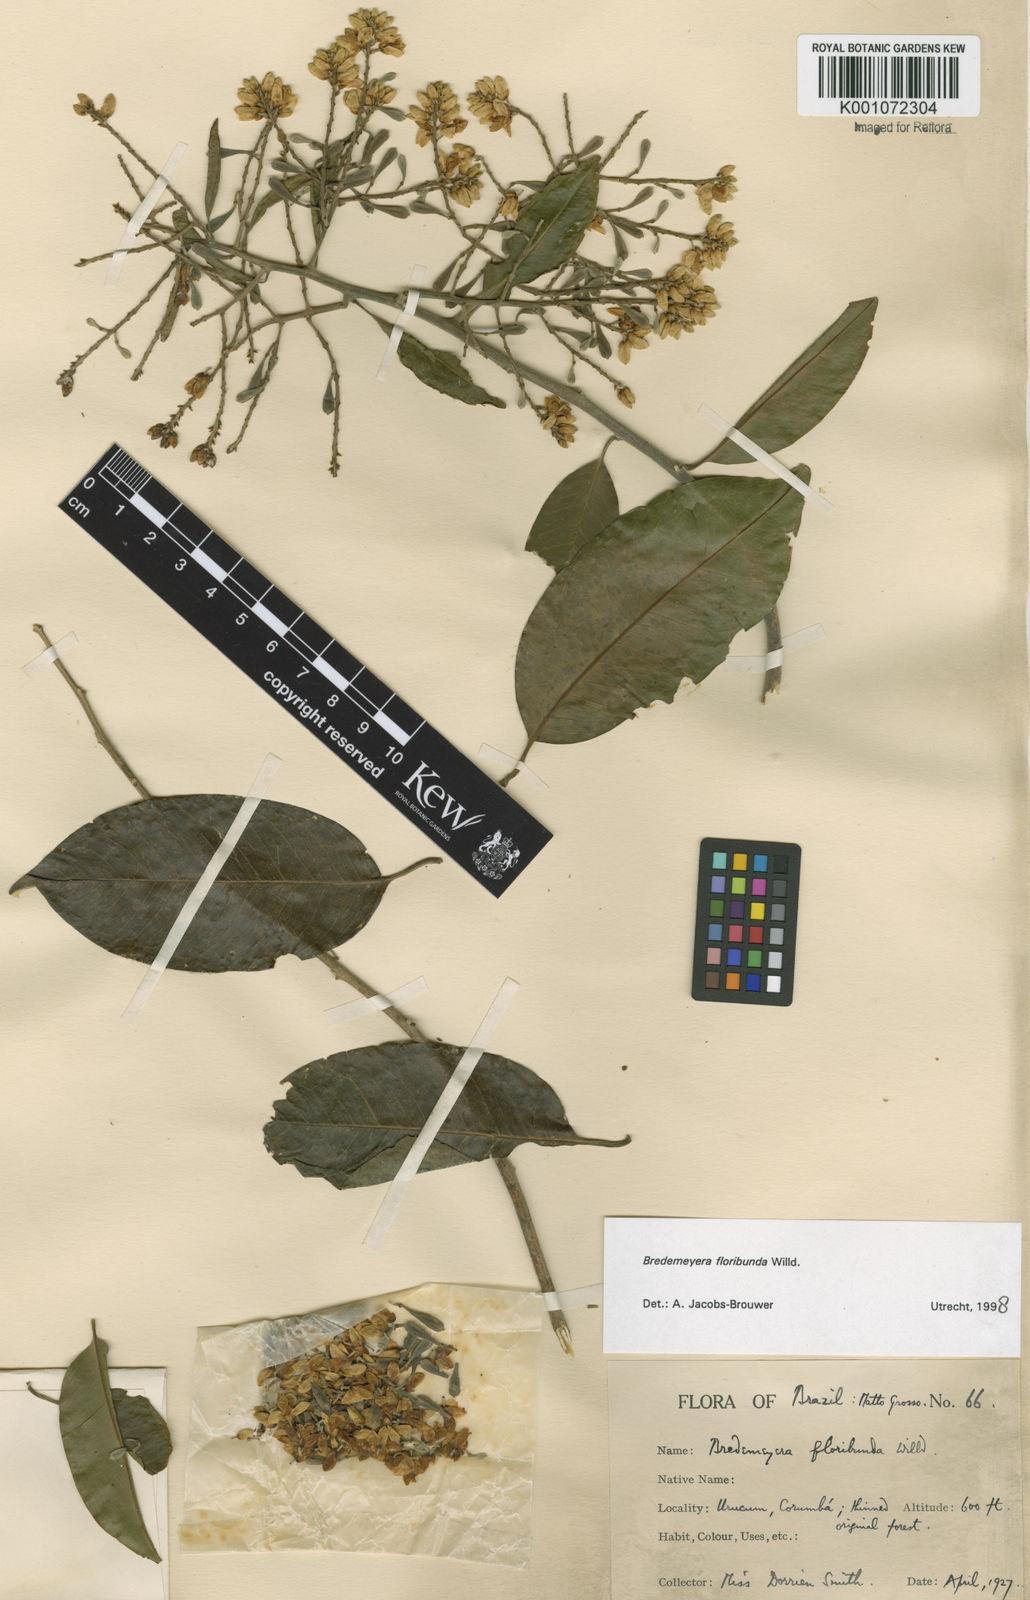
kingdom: Plantae
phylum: Tracheophyta
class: Magnoliopsida
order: Fabales
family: Polygalaceae
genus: Bredemeyera
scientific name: Bredemeyera floribunda
